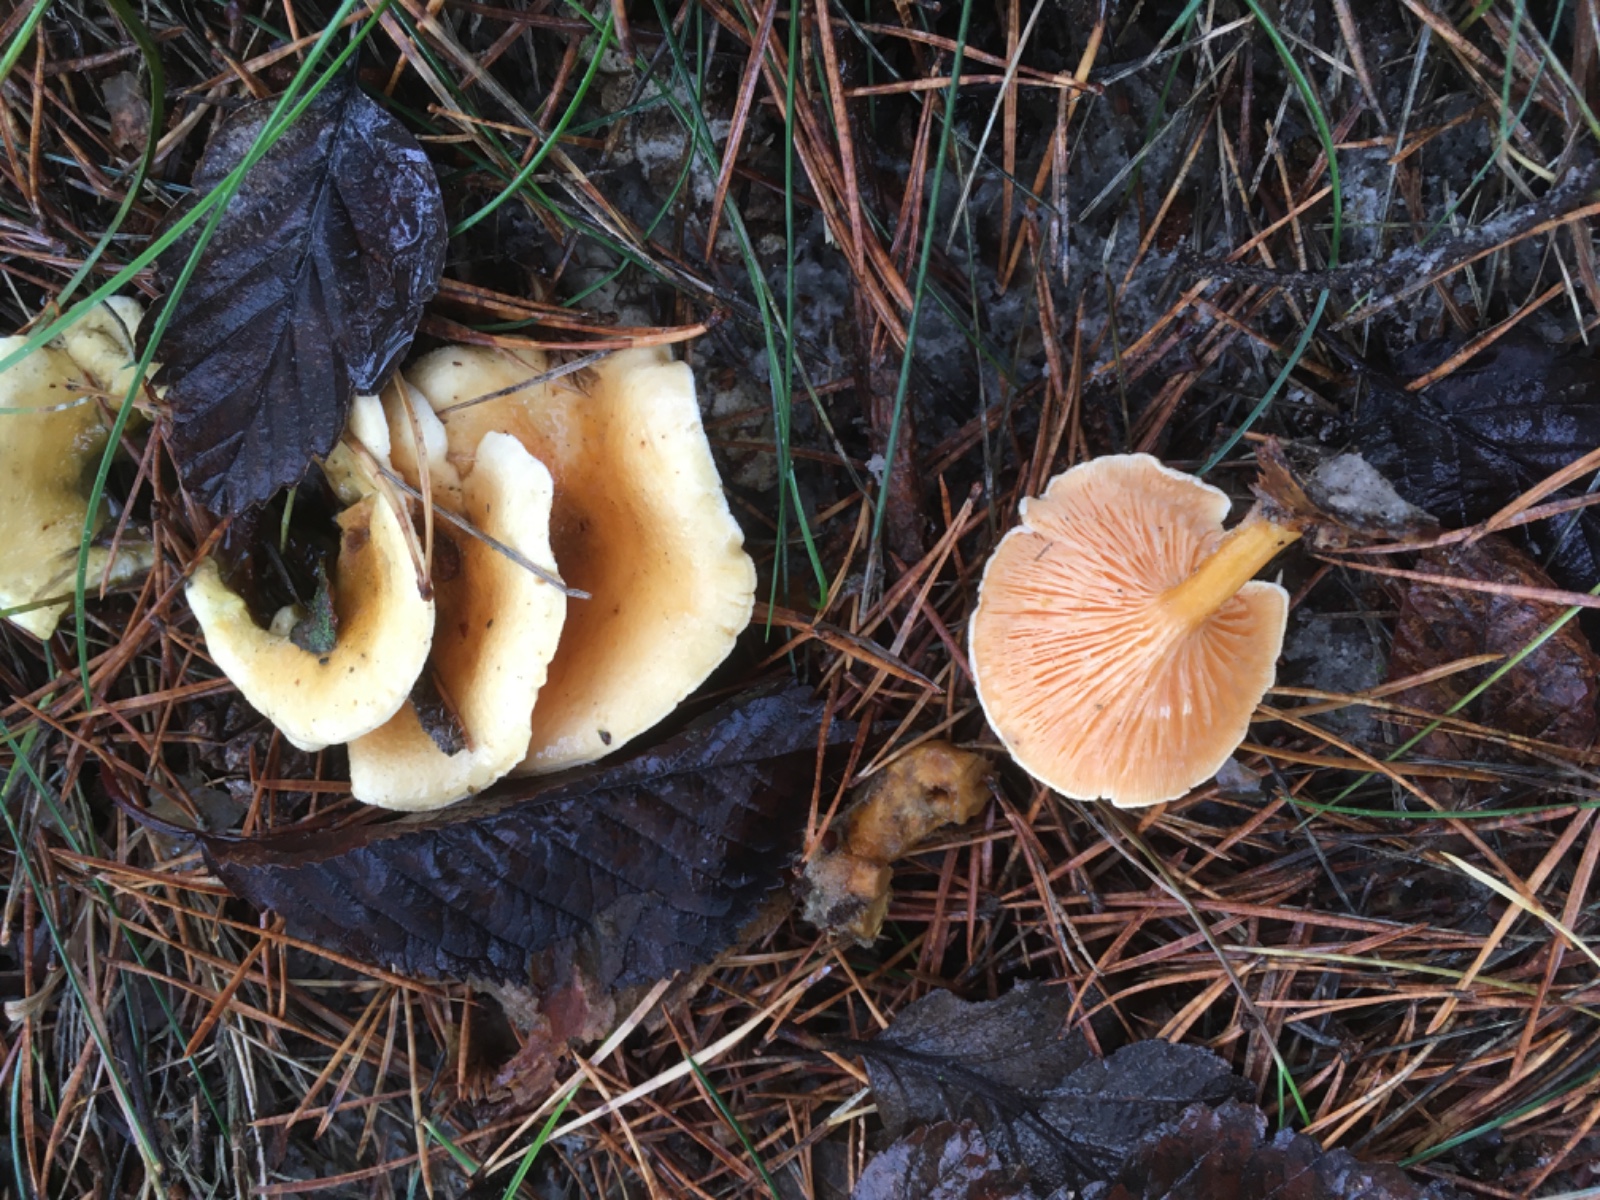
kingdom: Fungi
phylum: Basidiomycota
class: Agaricomycetes
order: Boletales
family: Hygrophoropsidaceae
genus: Hygrophoropsis
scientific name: Hygrophoropsis aurantiaca
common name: almindelig orangekantarel
